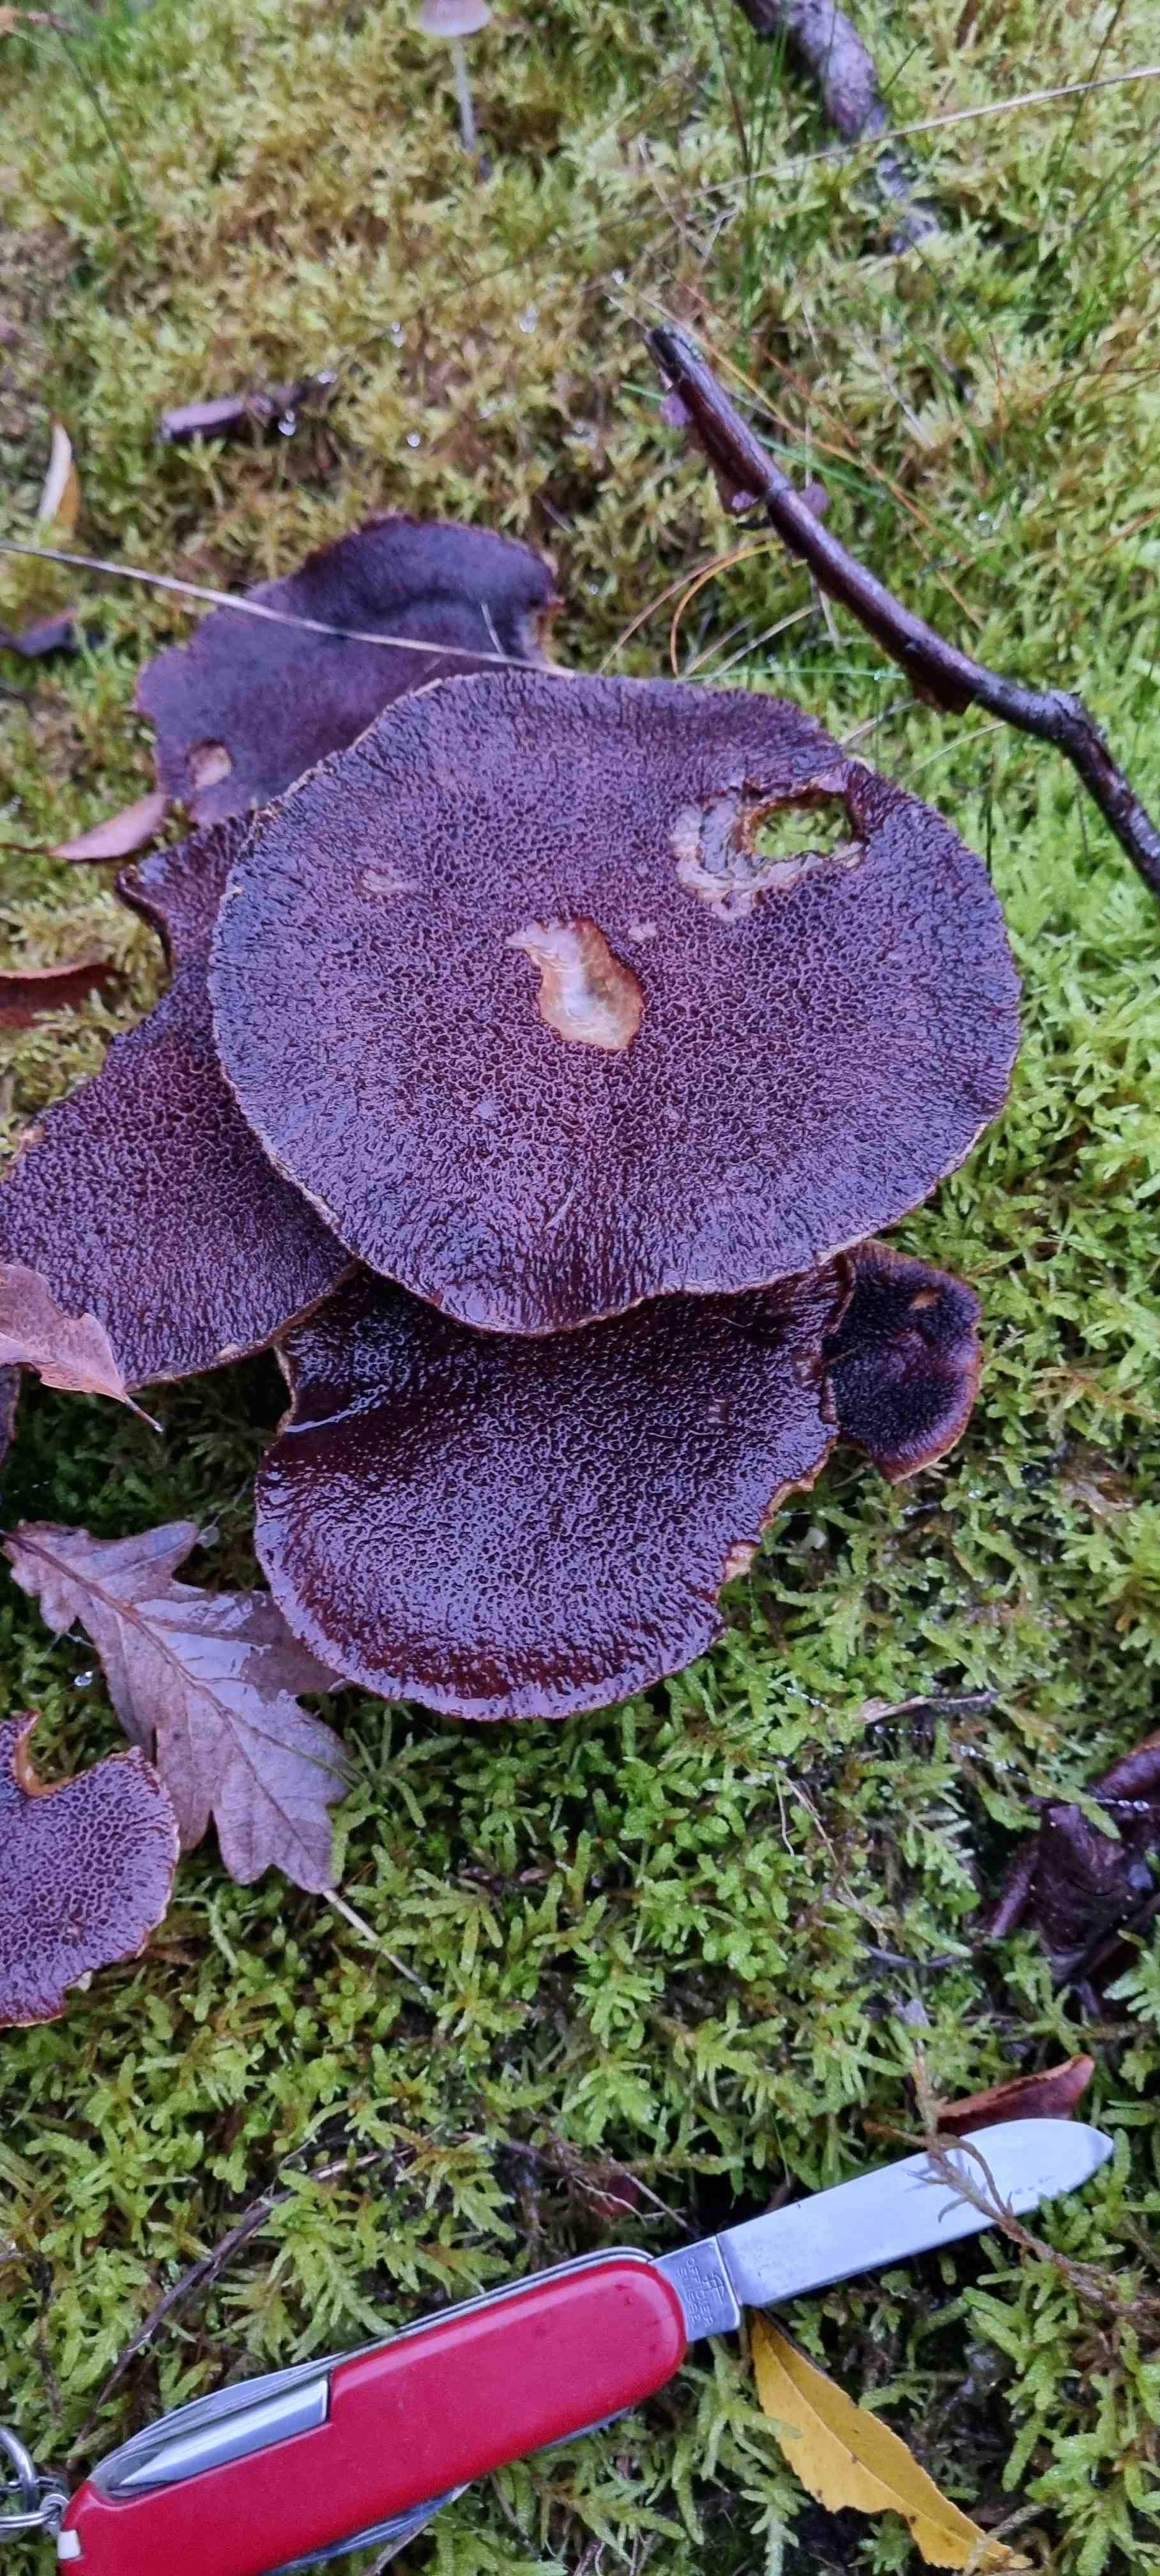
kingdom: Fungi
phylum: Basidiomycota
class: Agaricomycetes
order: Boletales
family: Suillaceae
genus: Suillus
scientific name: Suillus cavipes
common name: hulstokket slimrørhat
